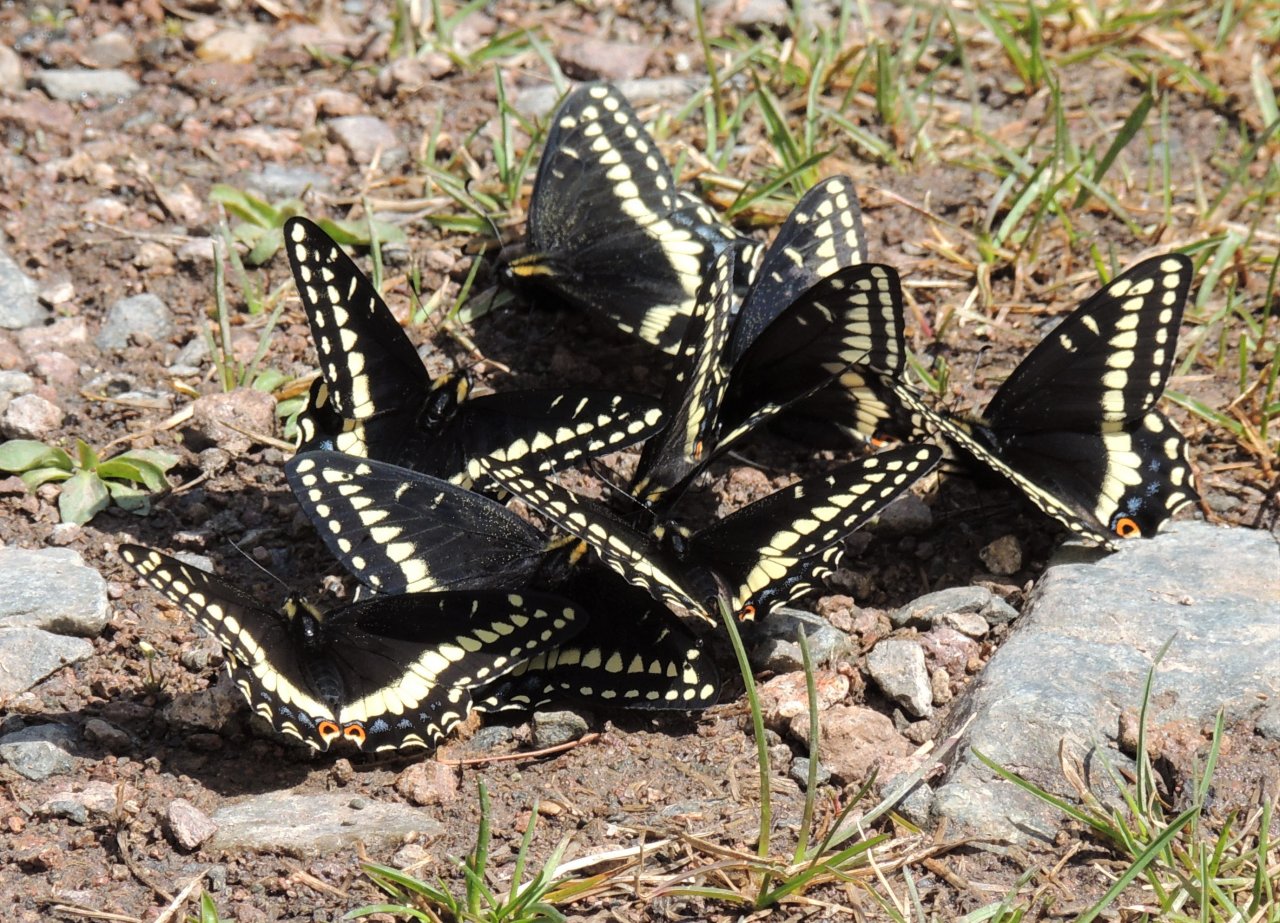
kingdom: Animalia
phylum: Arthropoda
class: Insecta
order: Lepidoptera
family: Papilionidae
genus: Papilio
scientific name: Papilio indra
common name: Indra Swallowtail
